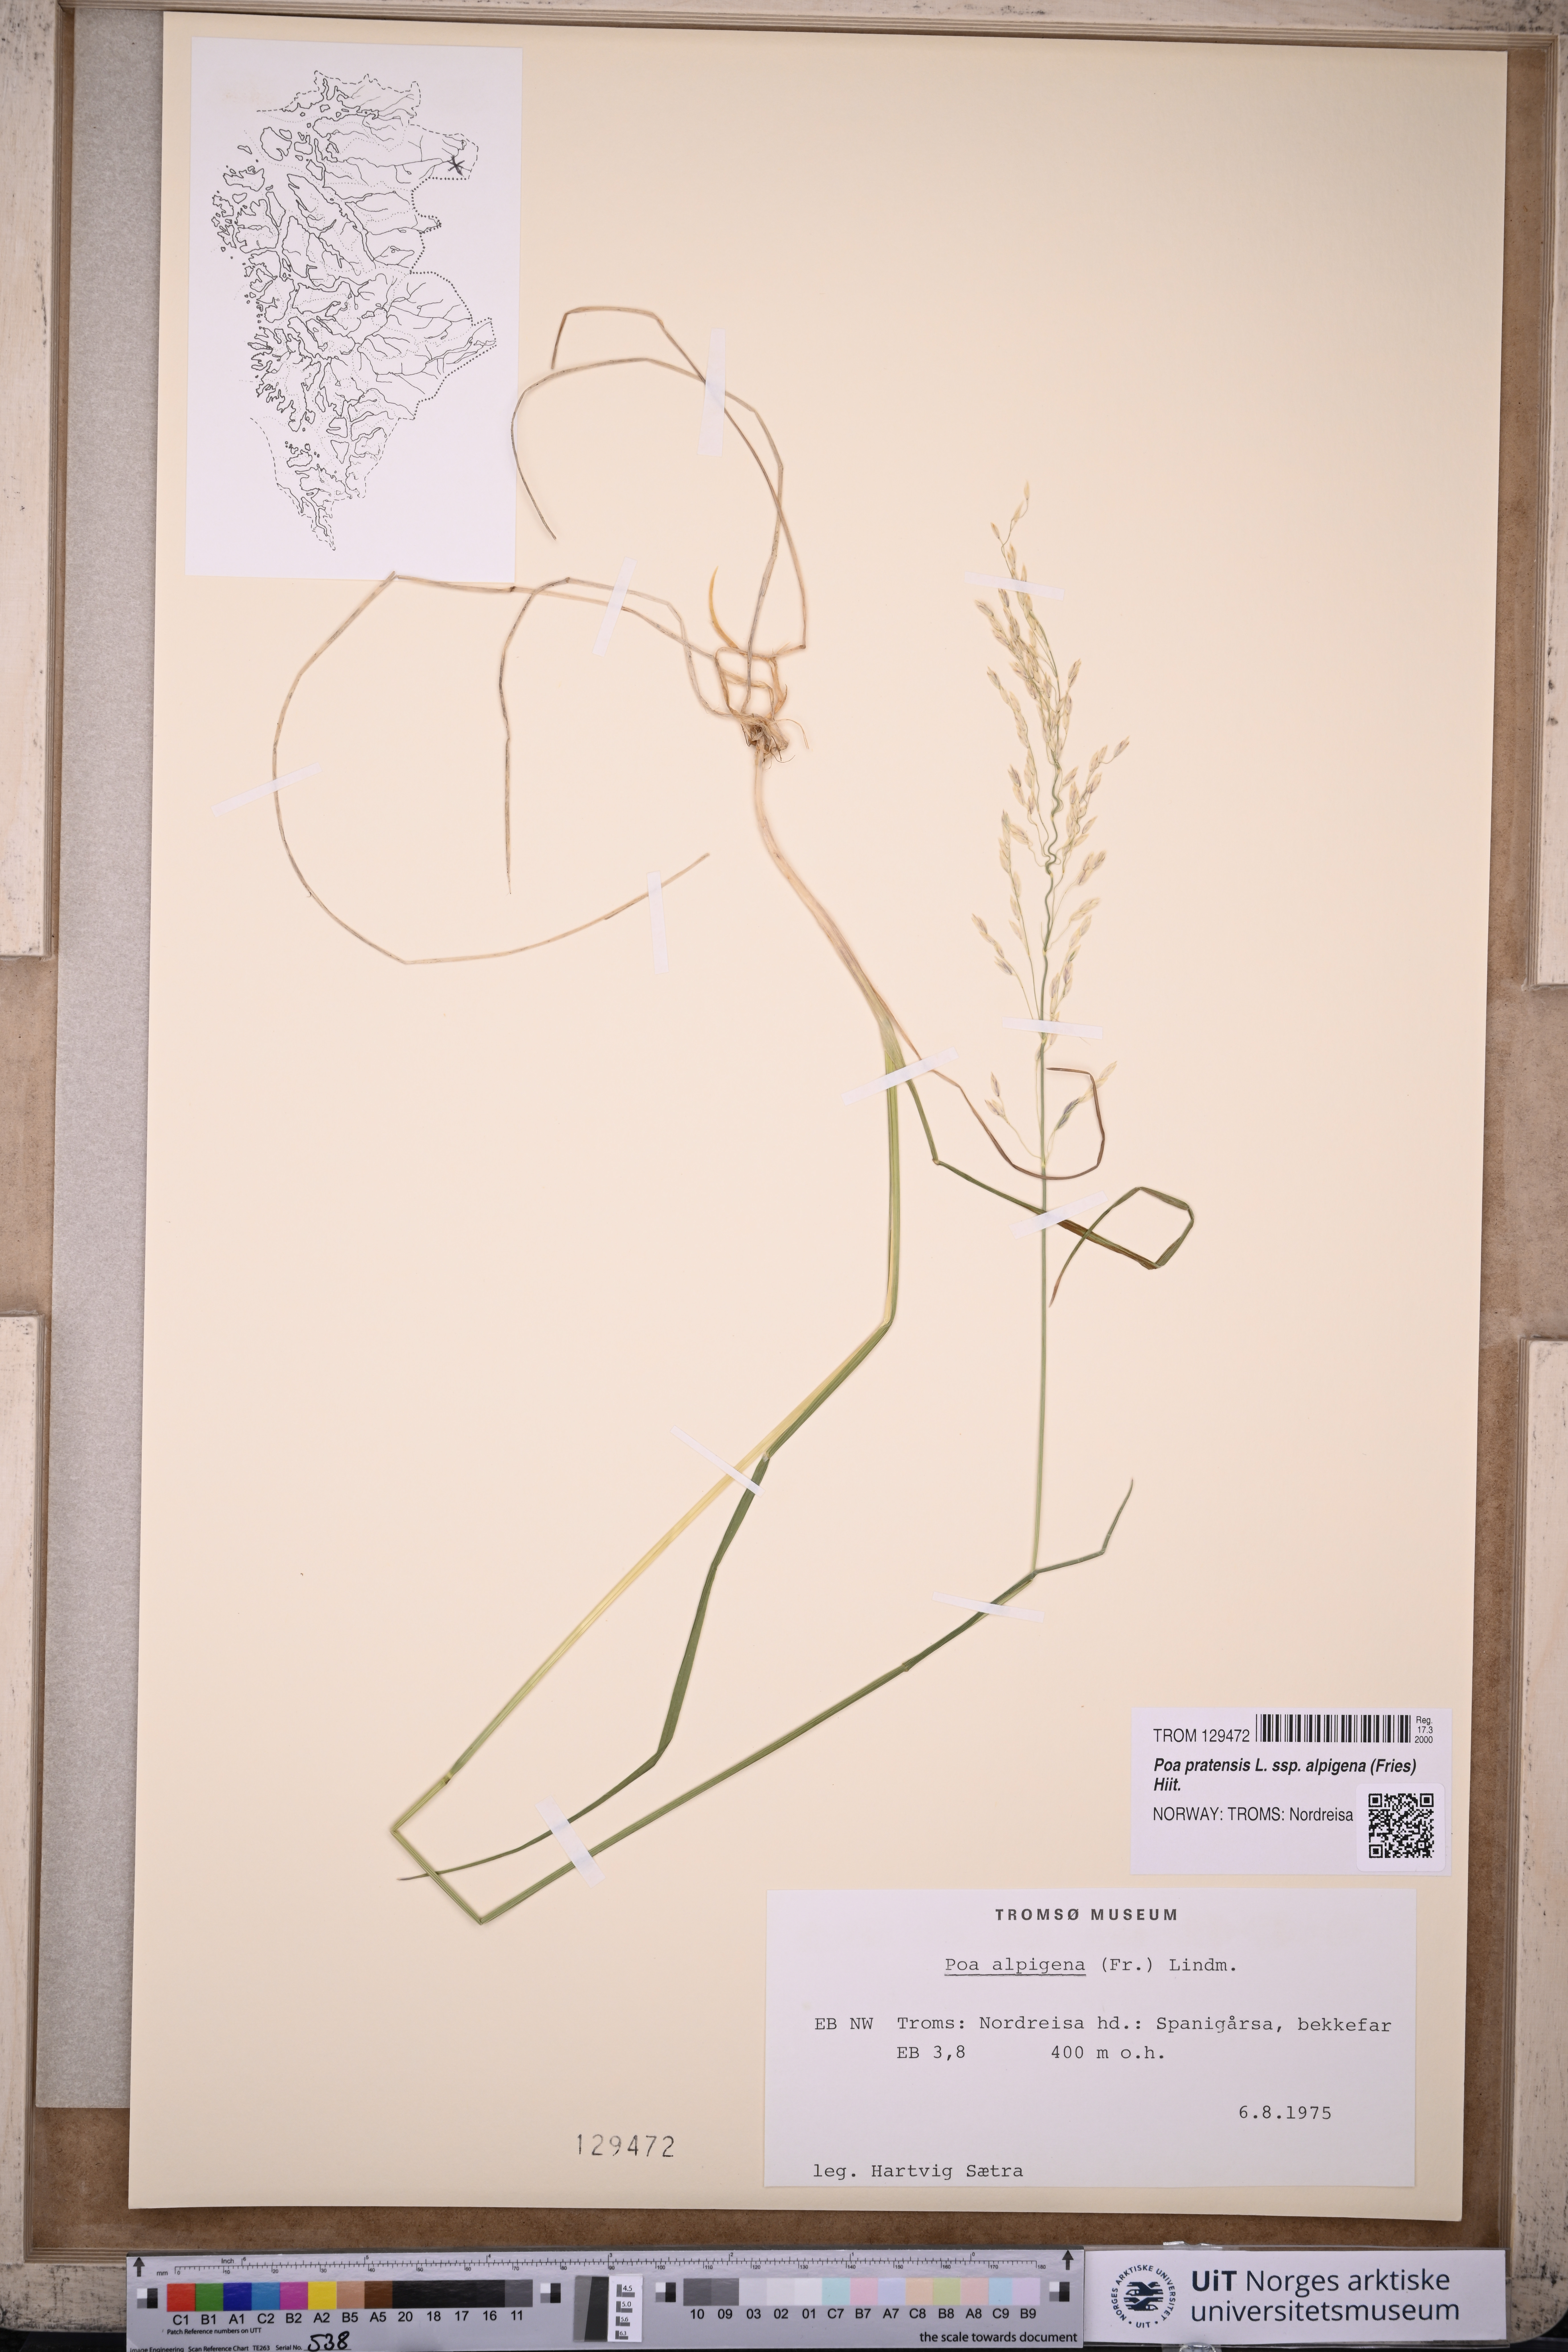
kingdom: Plantae
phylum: Tracheophyta
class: Liliopsida
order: Poales
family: Poaceae
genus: Poa
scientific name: Poa alpigena
